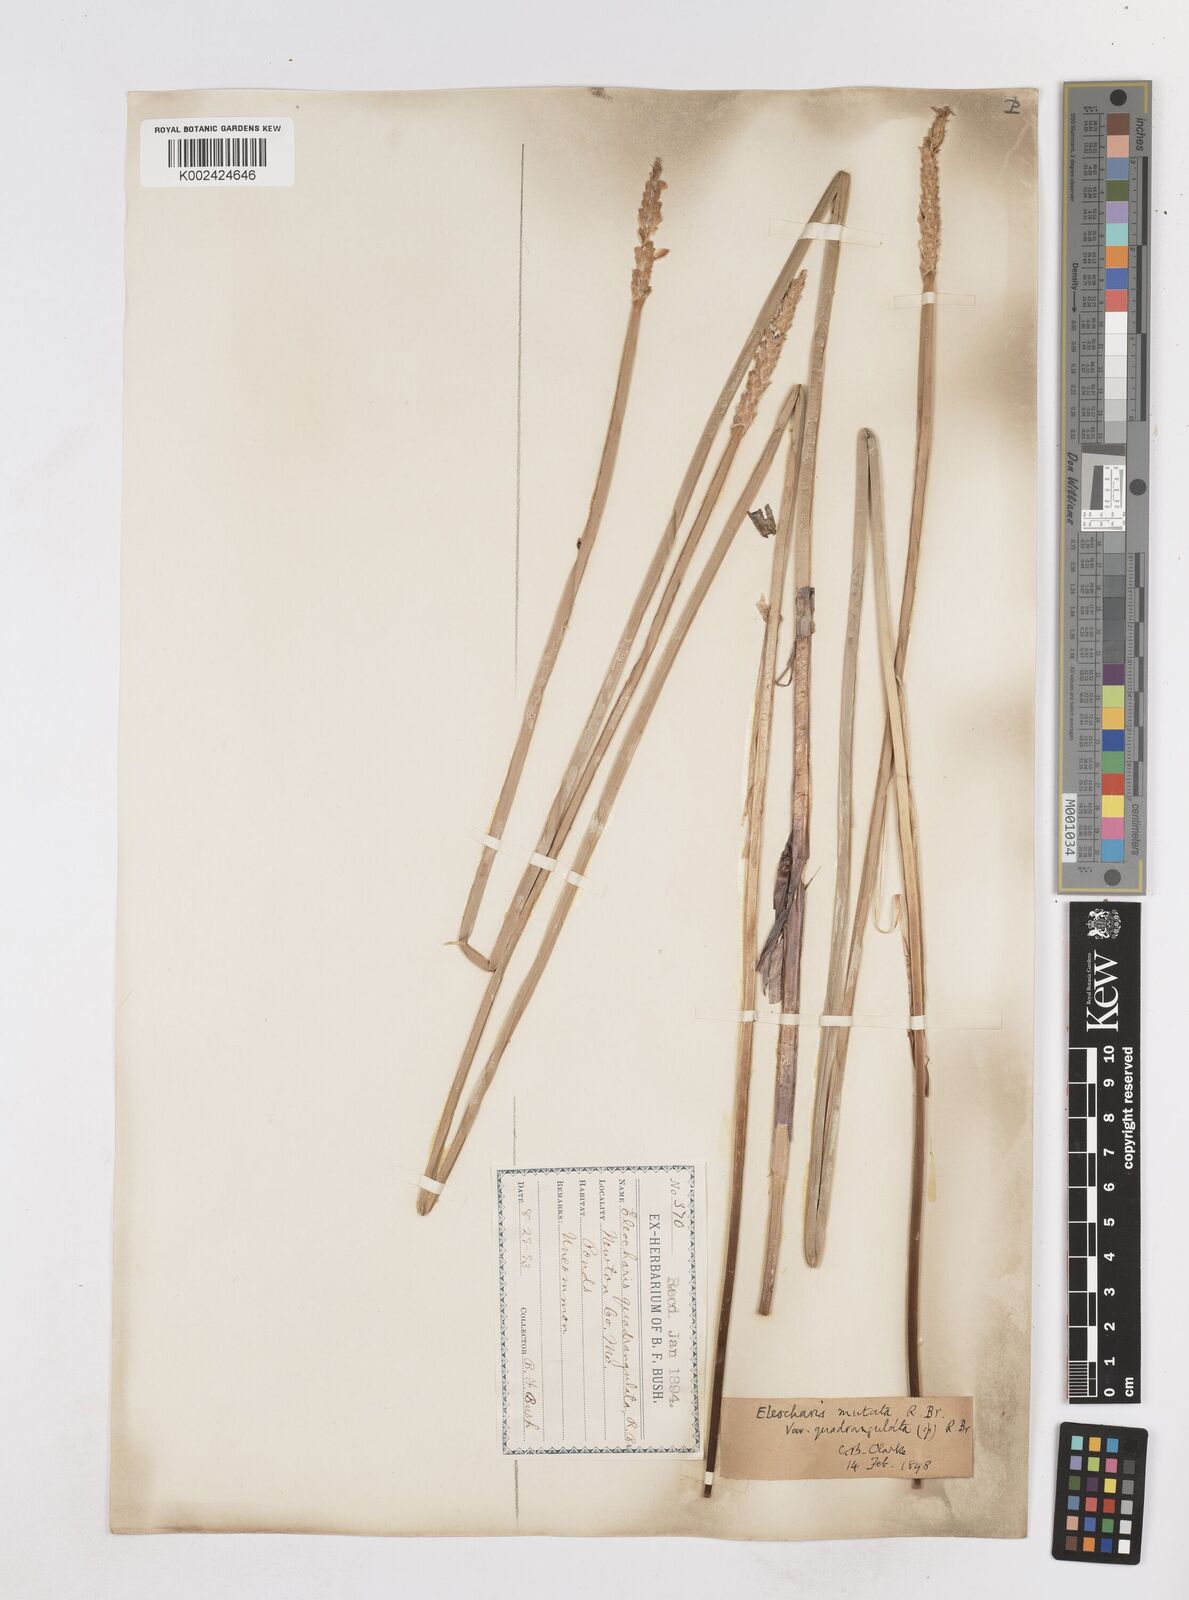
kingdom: Plantae
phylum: Tracheophyta
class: Liliopsida
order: Poales
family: Cyperaceae
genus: Eleocharis
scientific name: Eleocharis quadrangulata
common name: Square-stem spike-rush
